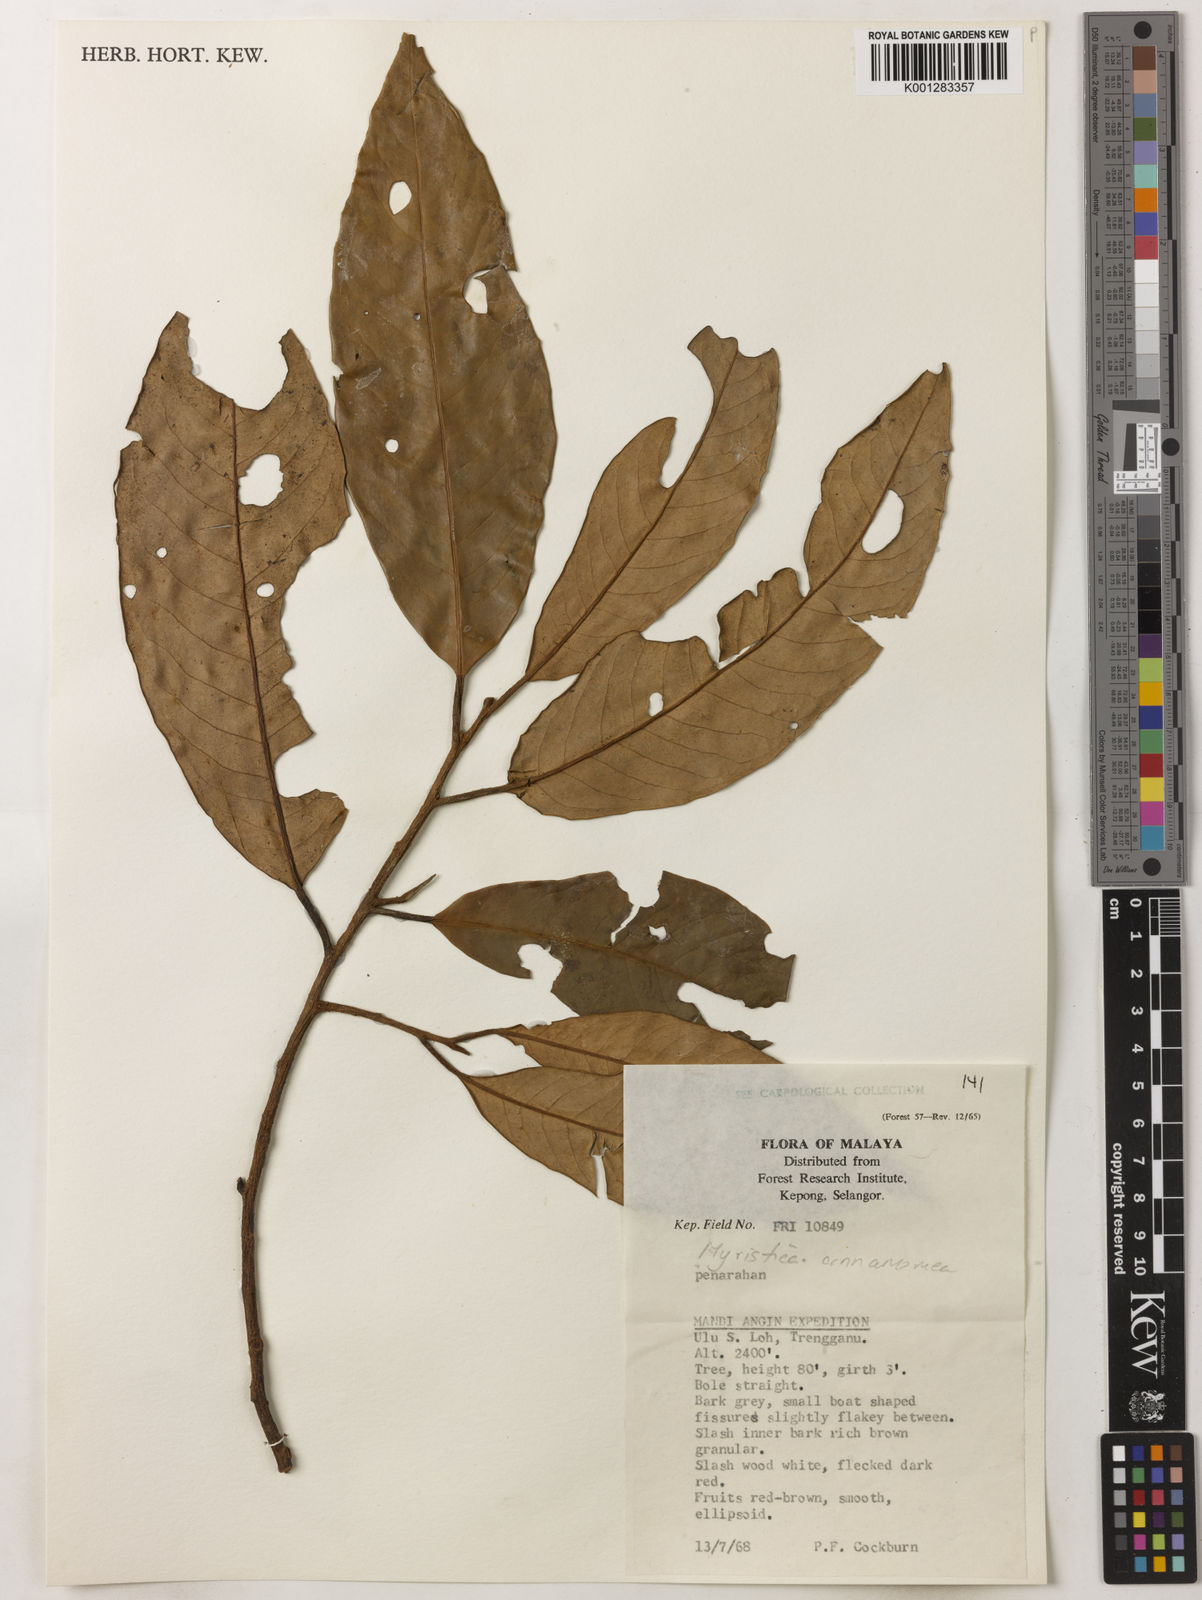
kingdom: Plantae
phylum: Tracheophyta
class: Magnoliopsida
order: Magnoliales
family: Myristicaceae
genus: Myristica
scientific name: Myristica cinnamomea
